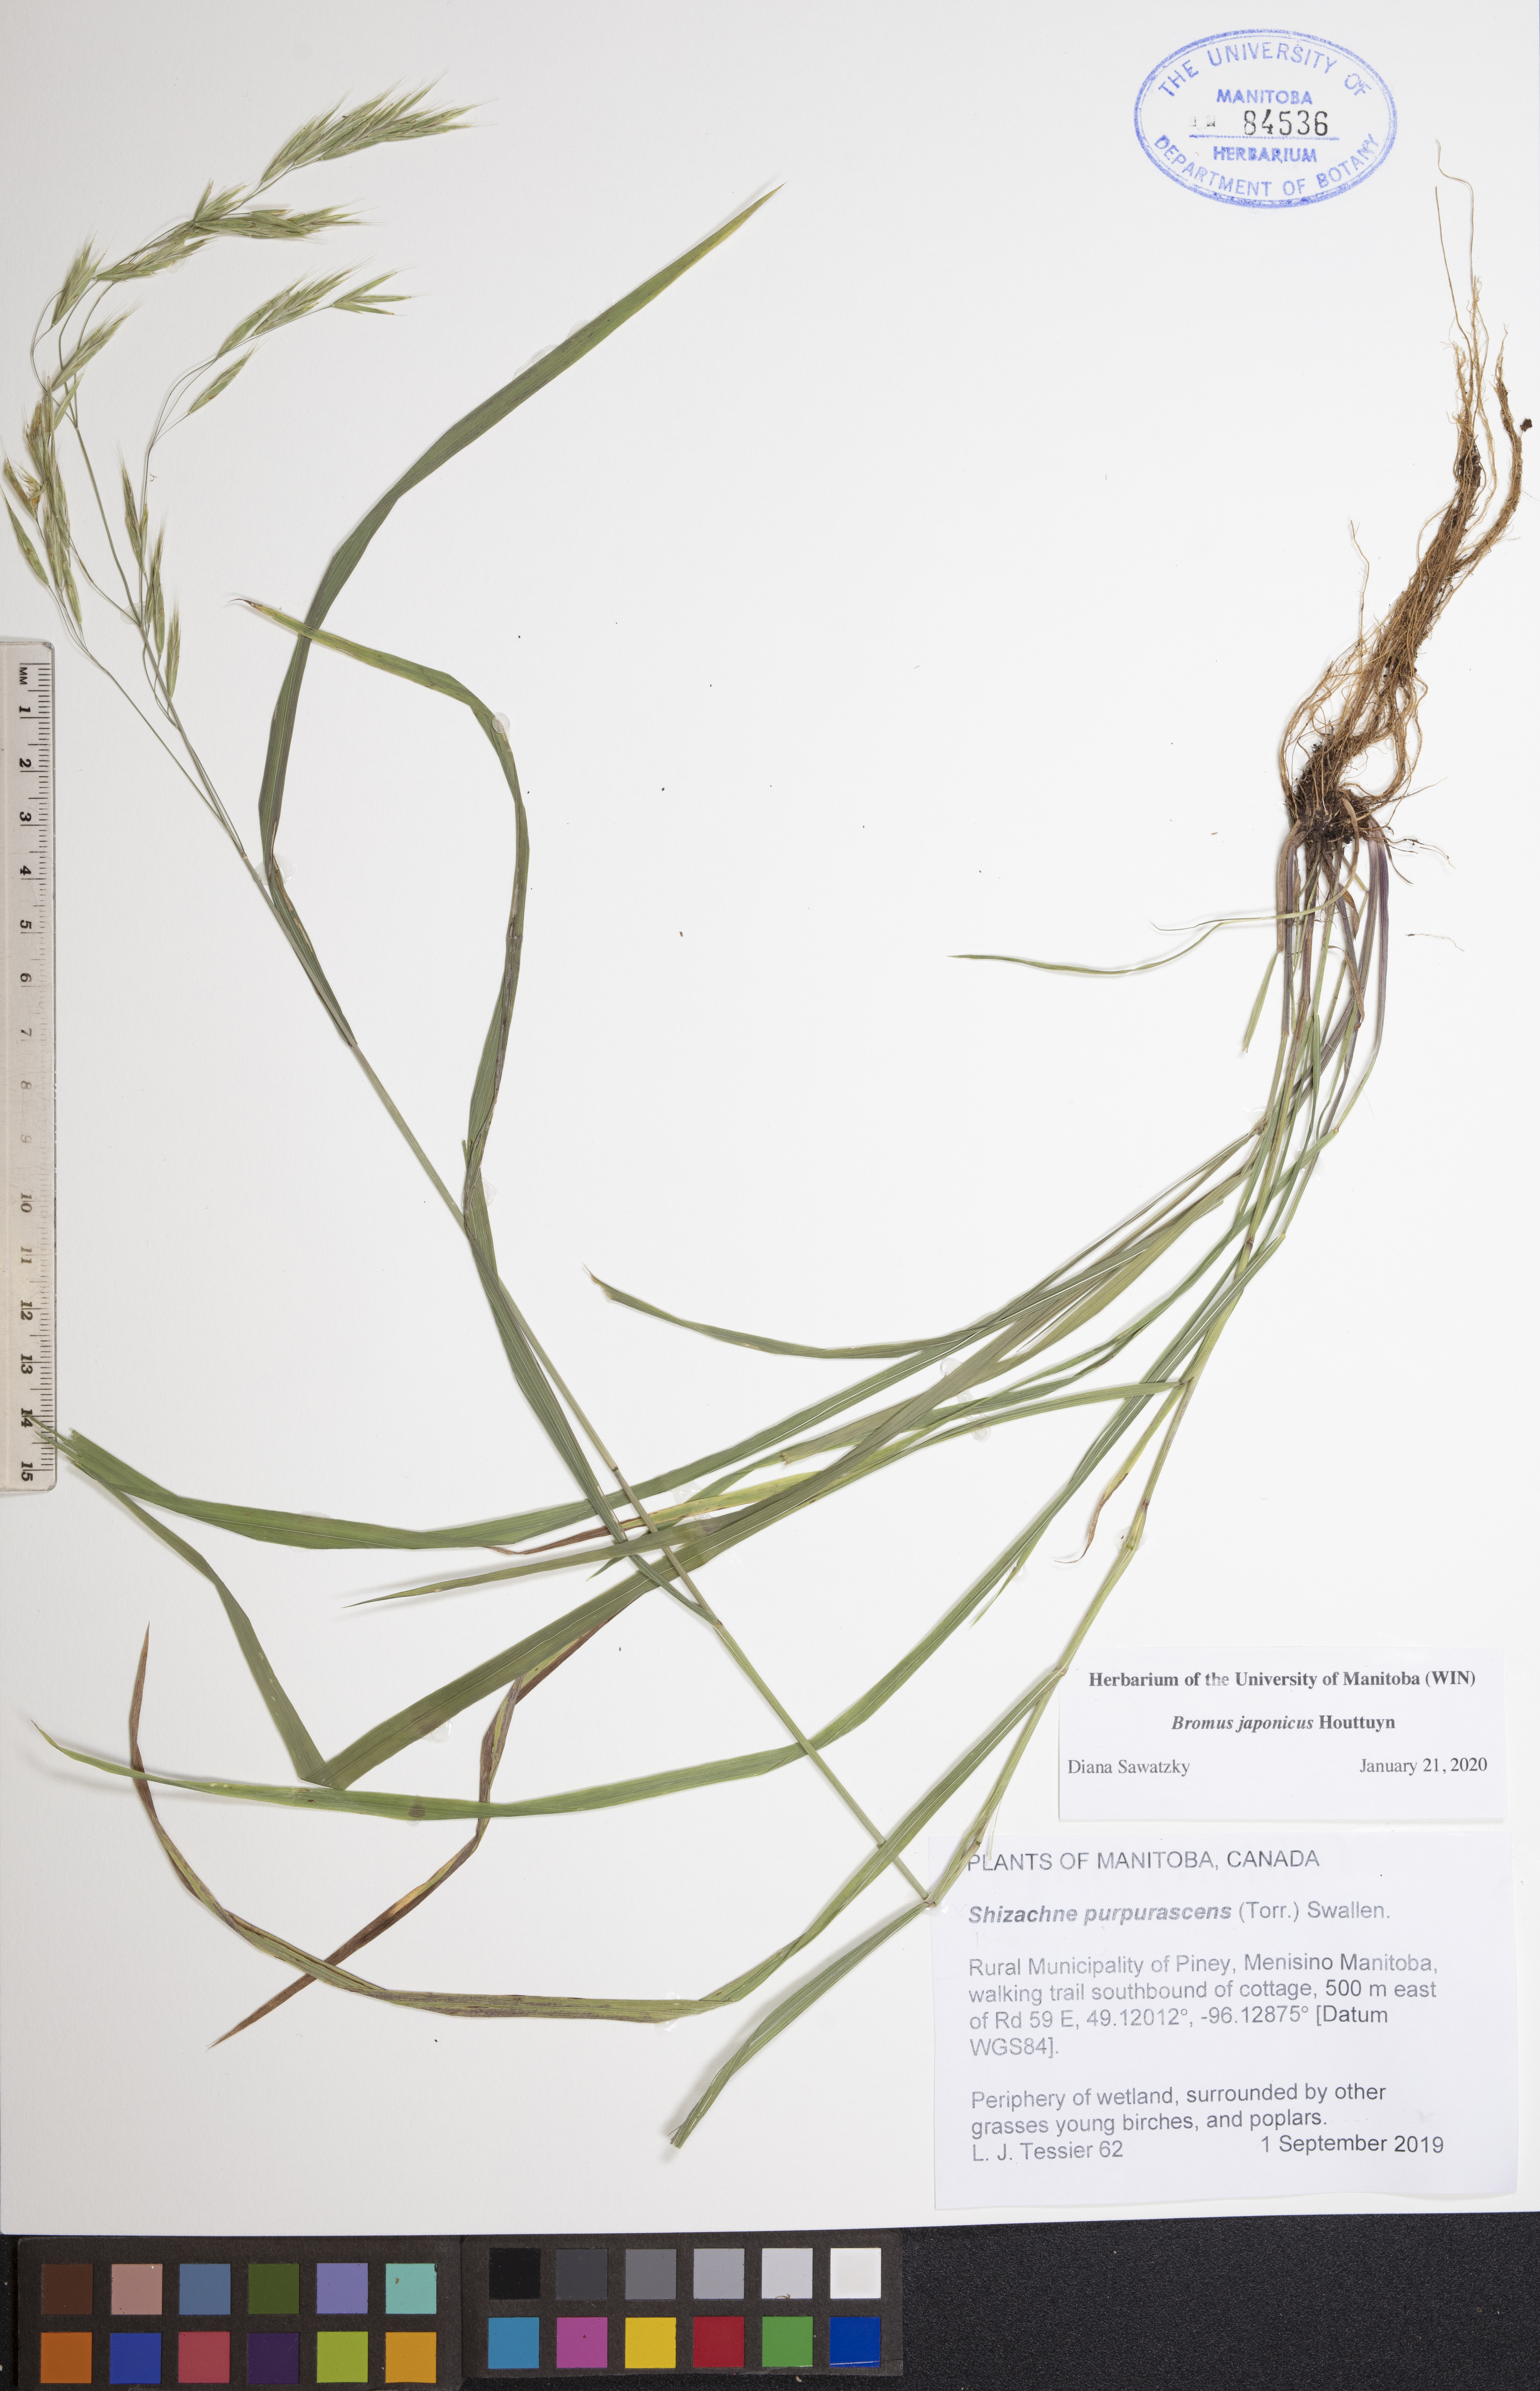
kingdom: Plantae
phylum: Tracheophyta
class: Liliopsida
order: Poales
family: Poaceae
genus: Bromus
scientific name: Bromus japonicus
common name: Japanese brome
